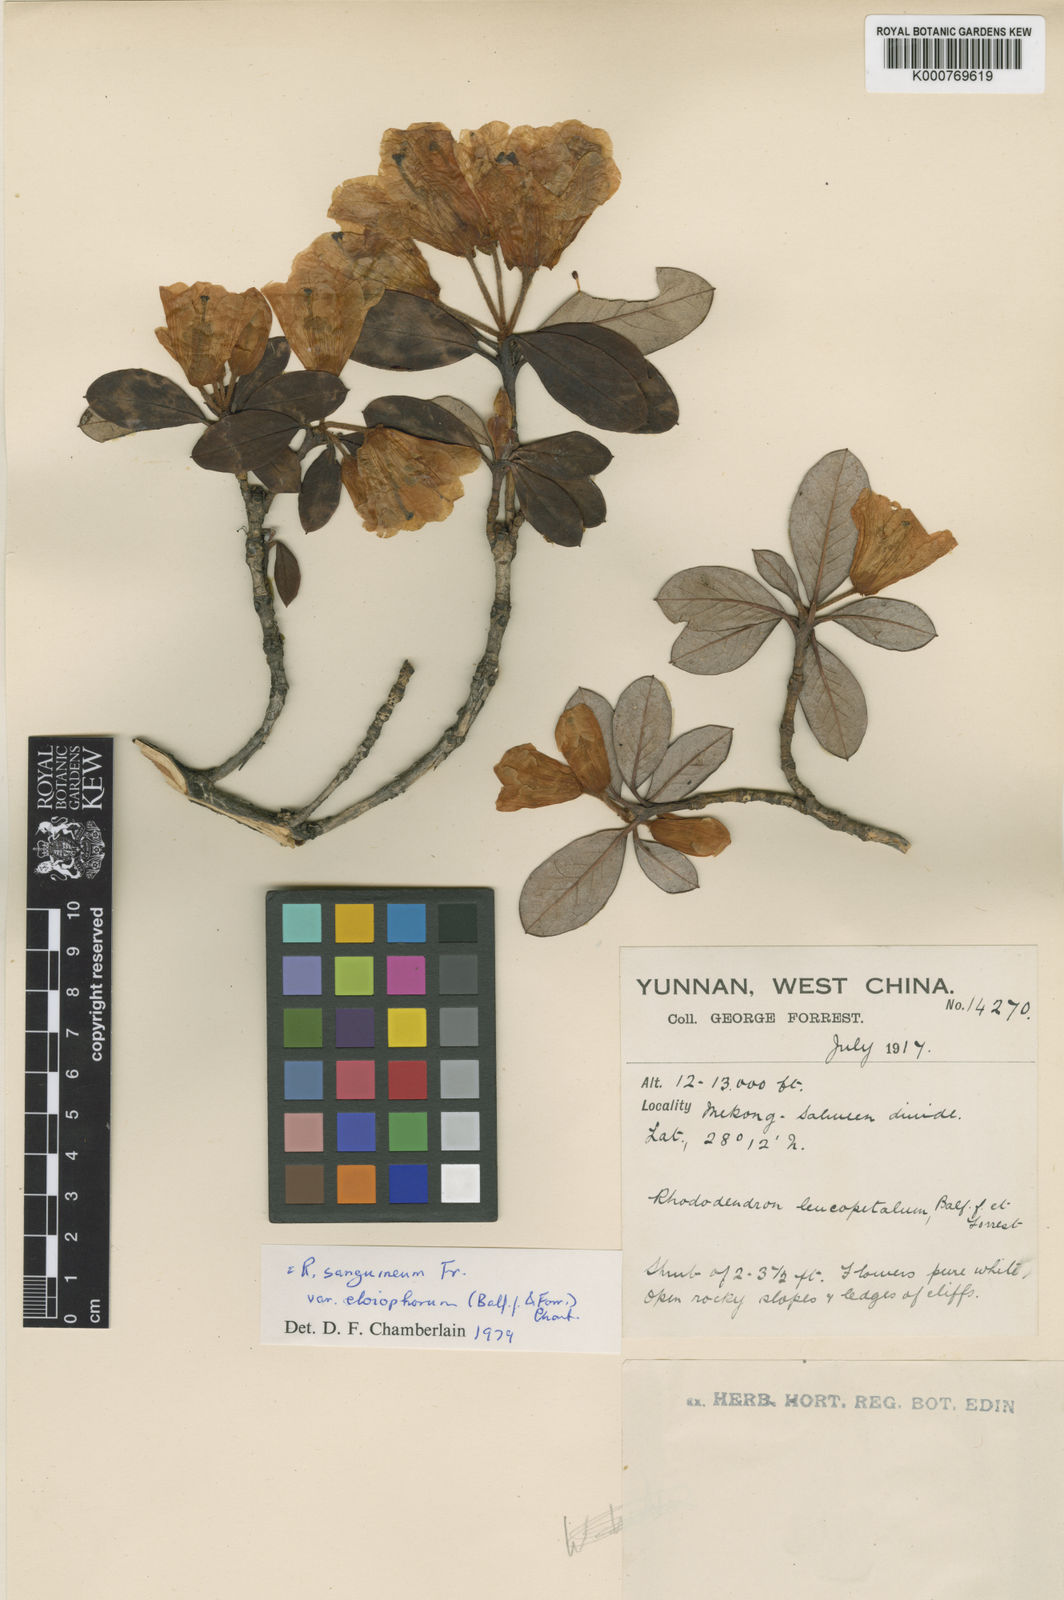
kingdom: Plantae
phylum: Tracheophyta
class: Magnoliopsida
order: Ericales
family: Ericaceae
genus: Rhododendron
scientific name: Rhododendron sanguineum
